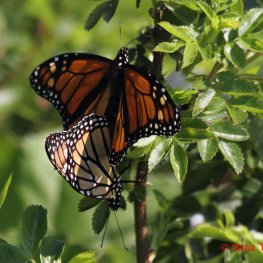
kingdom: Animalia
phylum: Arthropoda
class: Insecta
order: Lepidoptera
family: Nymphalidae
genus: Danaus
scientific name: Danaus plexippus
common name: Monarch
